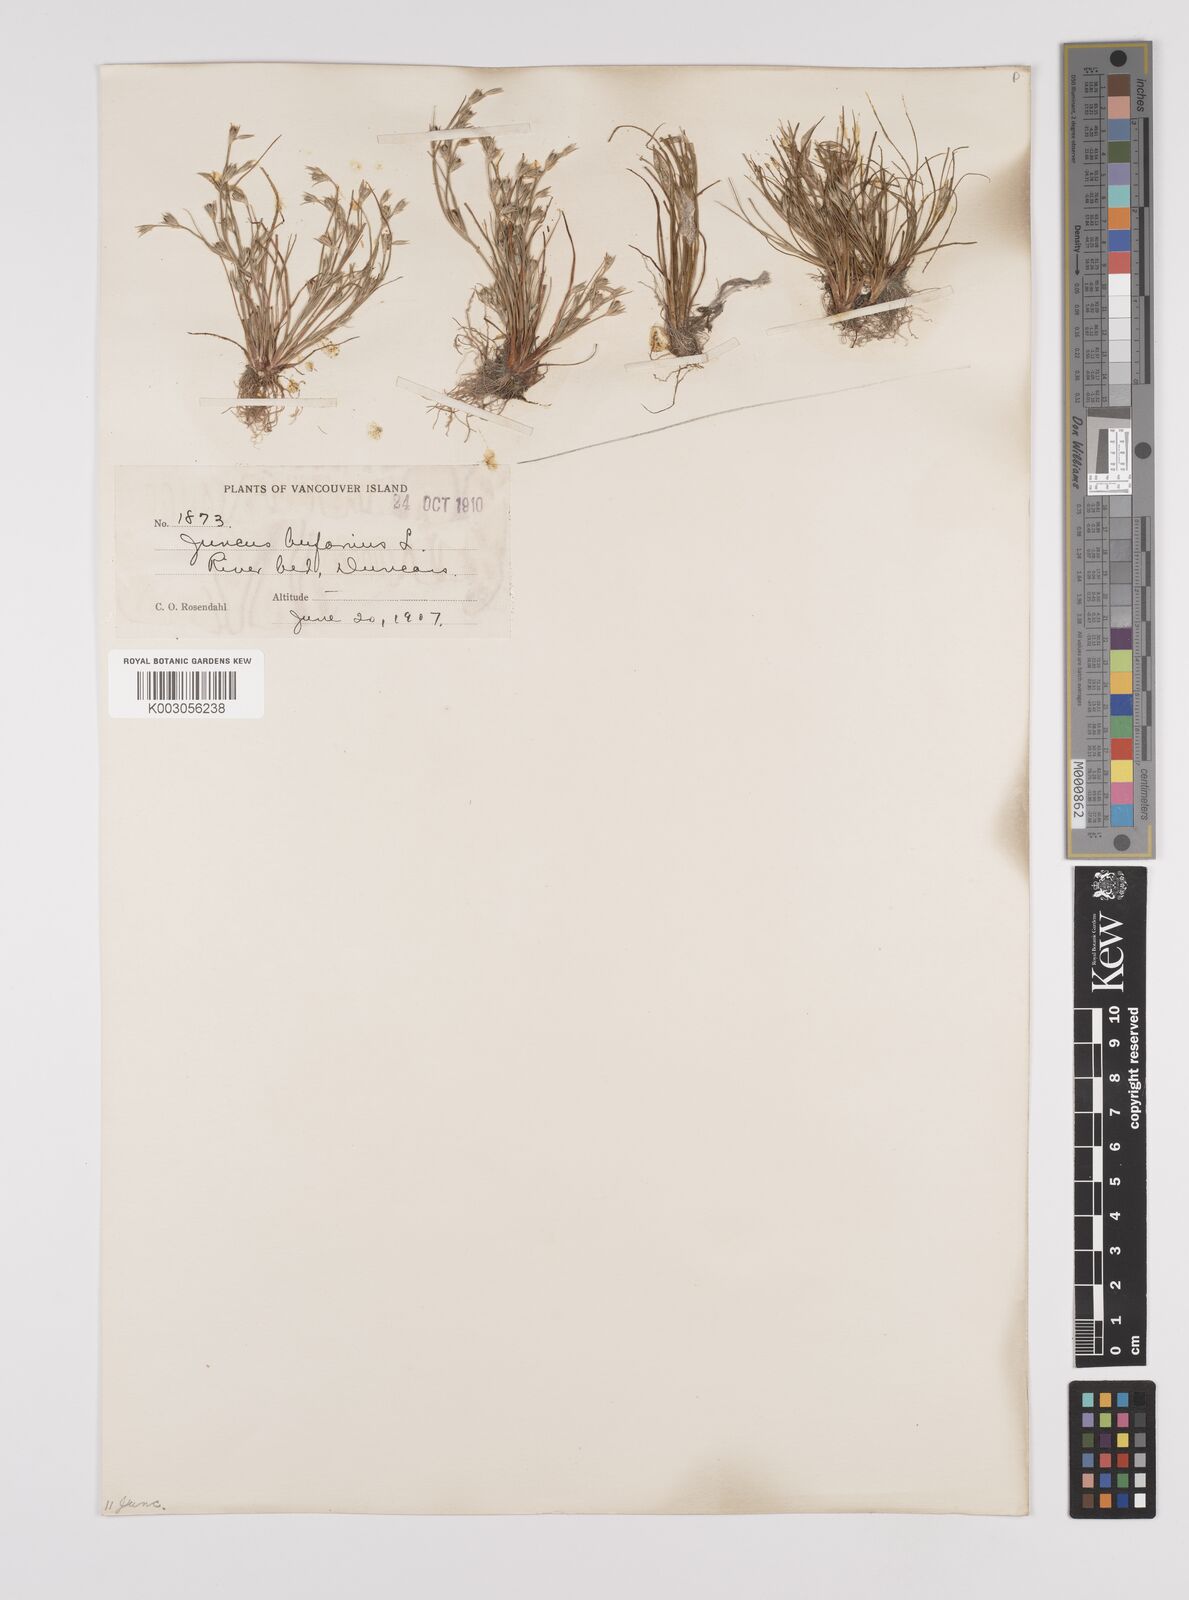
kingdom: Plantae
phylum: Tracheophyta
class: Liliopsida
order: Poales
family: Juncaceae
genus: Juncus
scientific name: Juncus bufonius
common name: Toad rush
